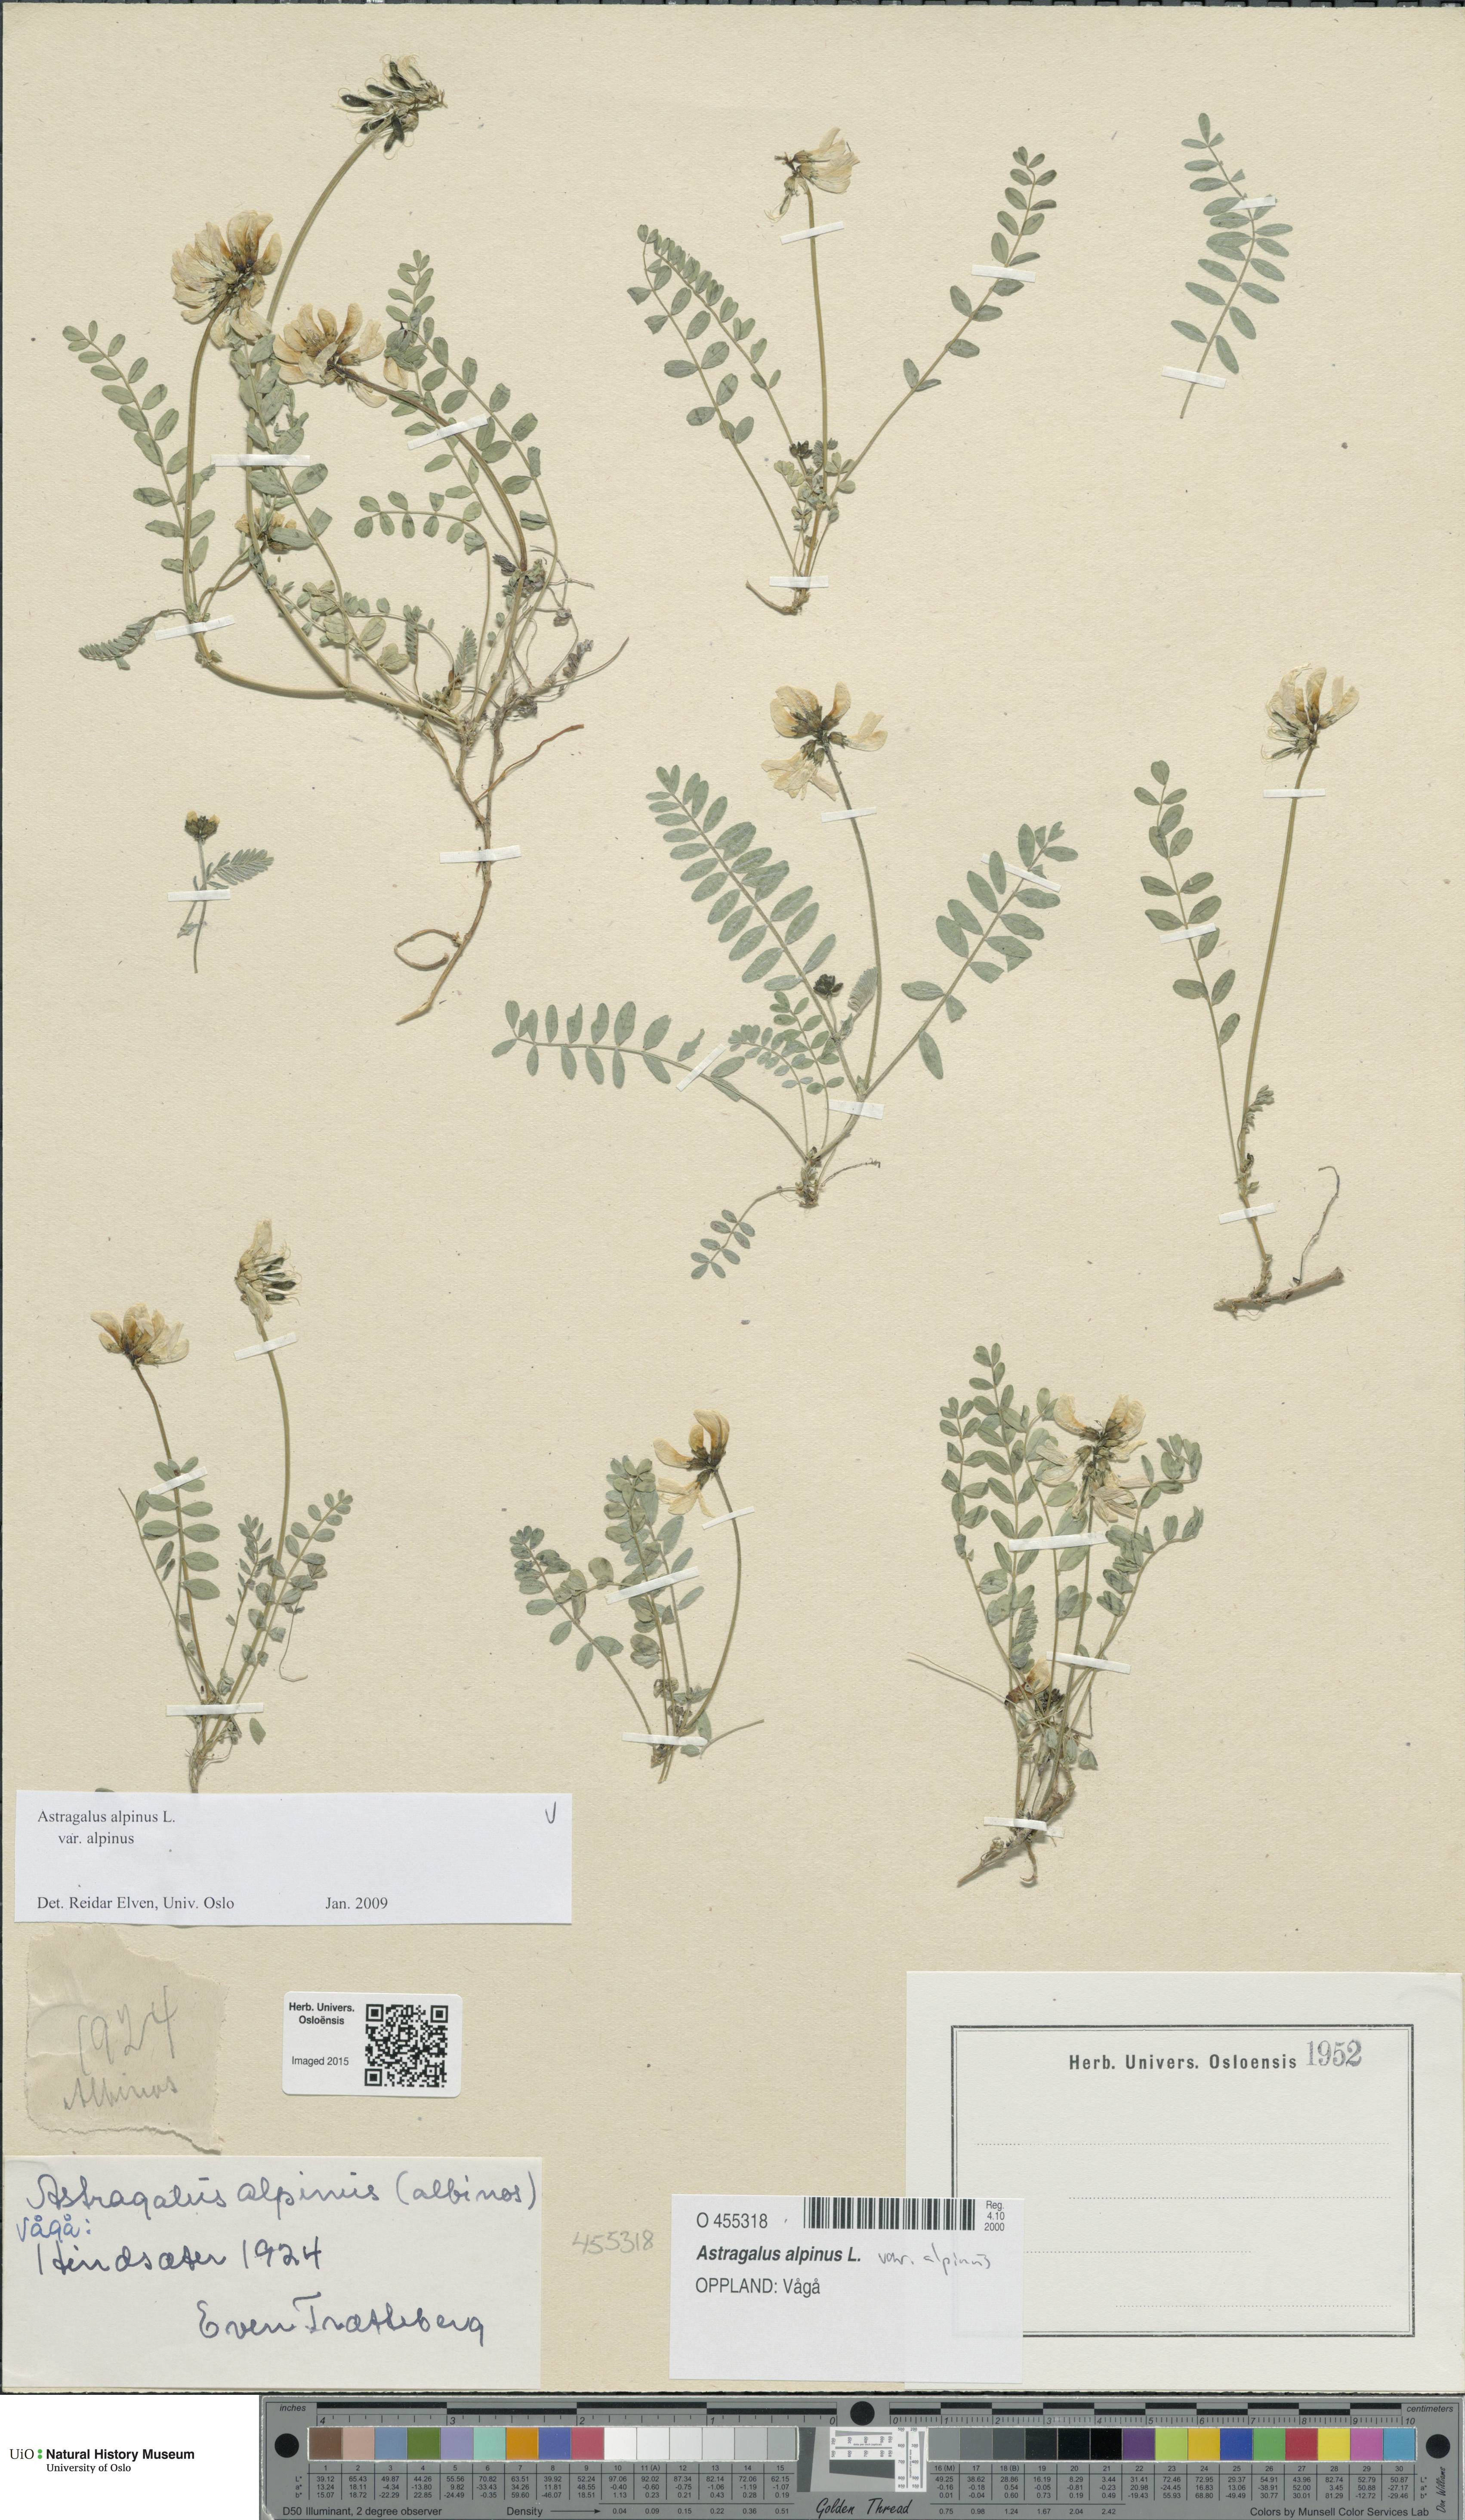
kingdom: Plantae
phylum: Tracheophyta
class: Magnoliopsida
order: Fabales
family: Fabaceae
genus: Astragalus
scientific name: Astragalus alpinus
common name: Alpine milk-vetch
